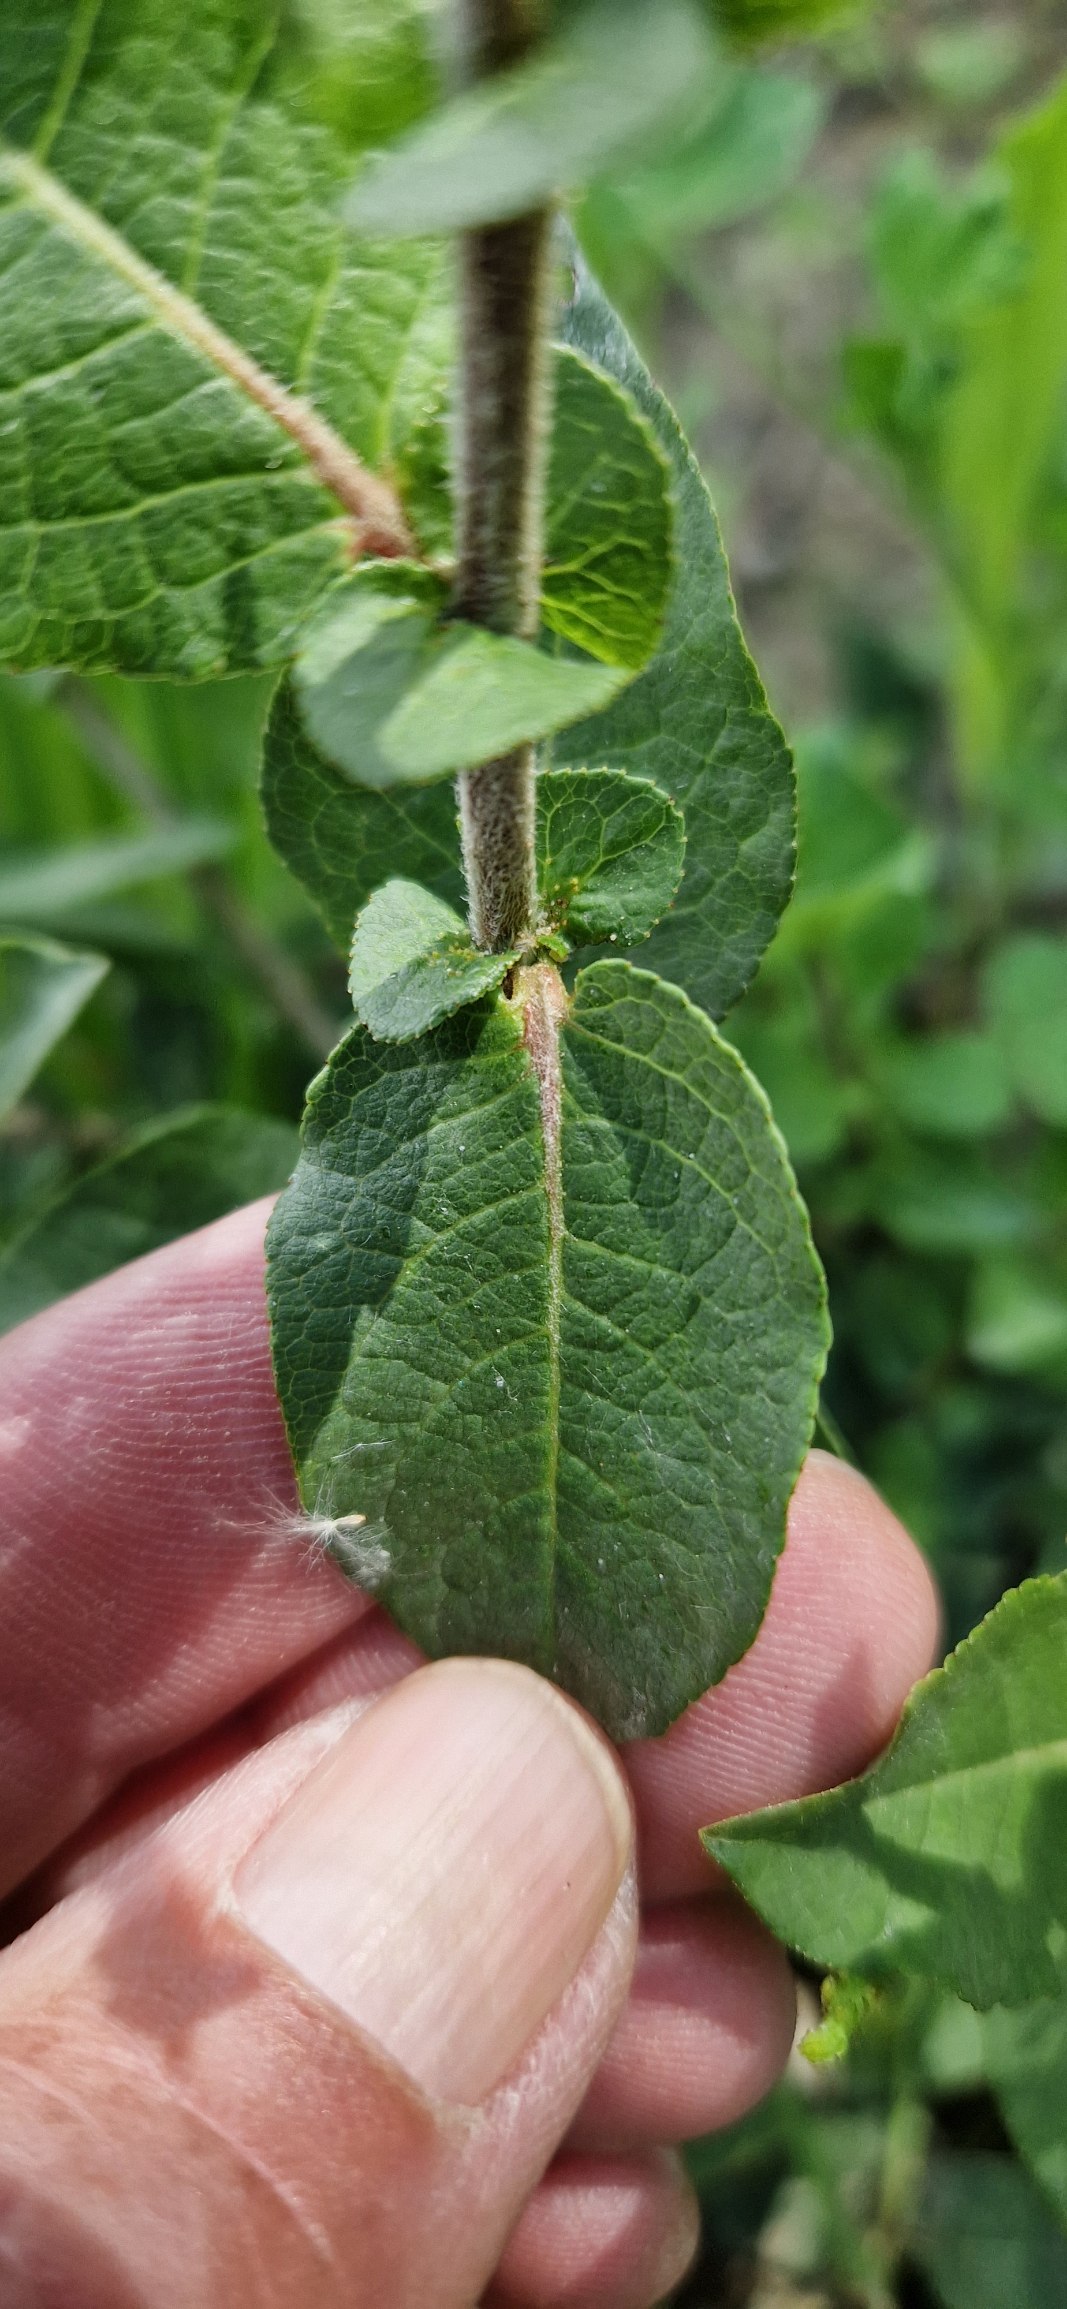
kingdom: Plantae
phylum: Tracheophyta
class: Magnoliopsida
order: Malpighiales
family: Salicaceae
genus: Salix
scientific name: Salix hastata
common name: Spyd-pil
